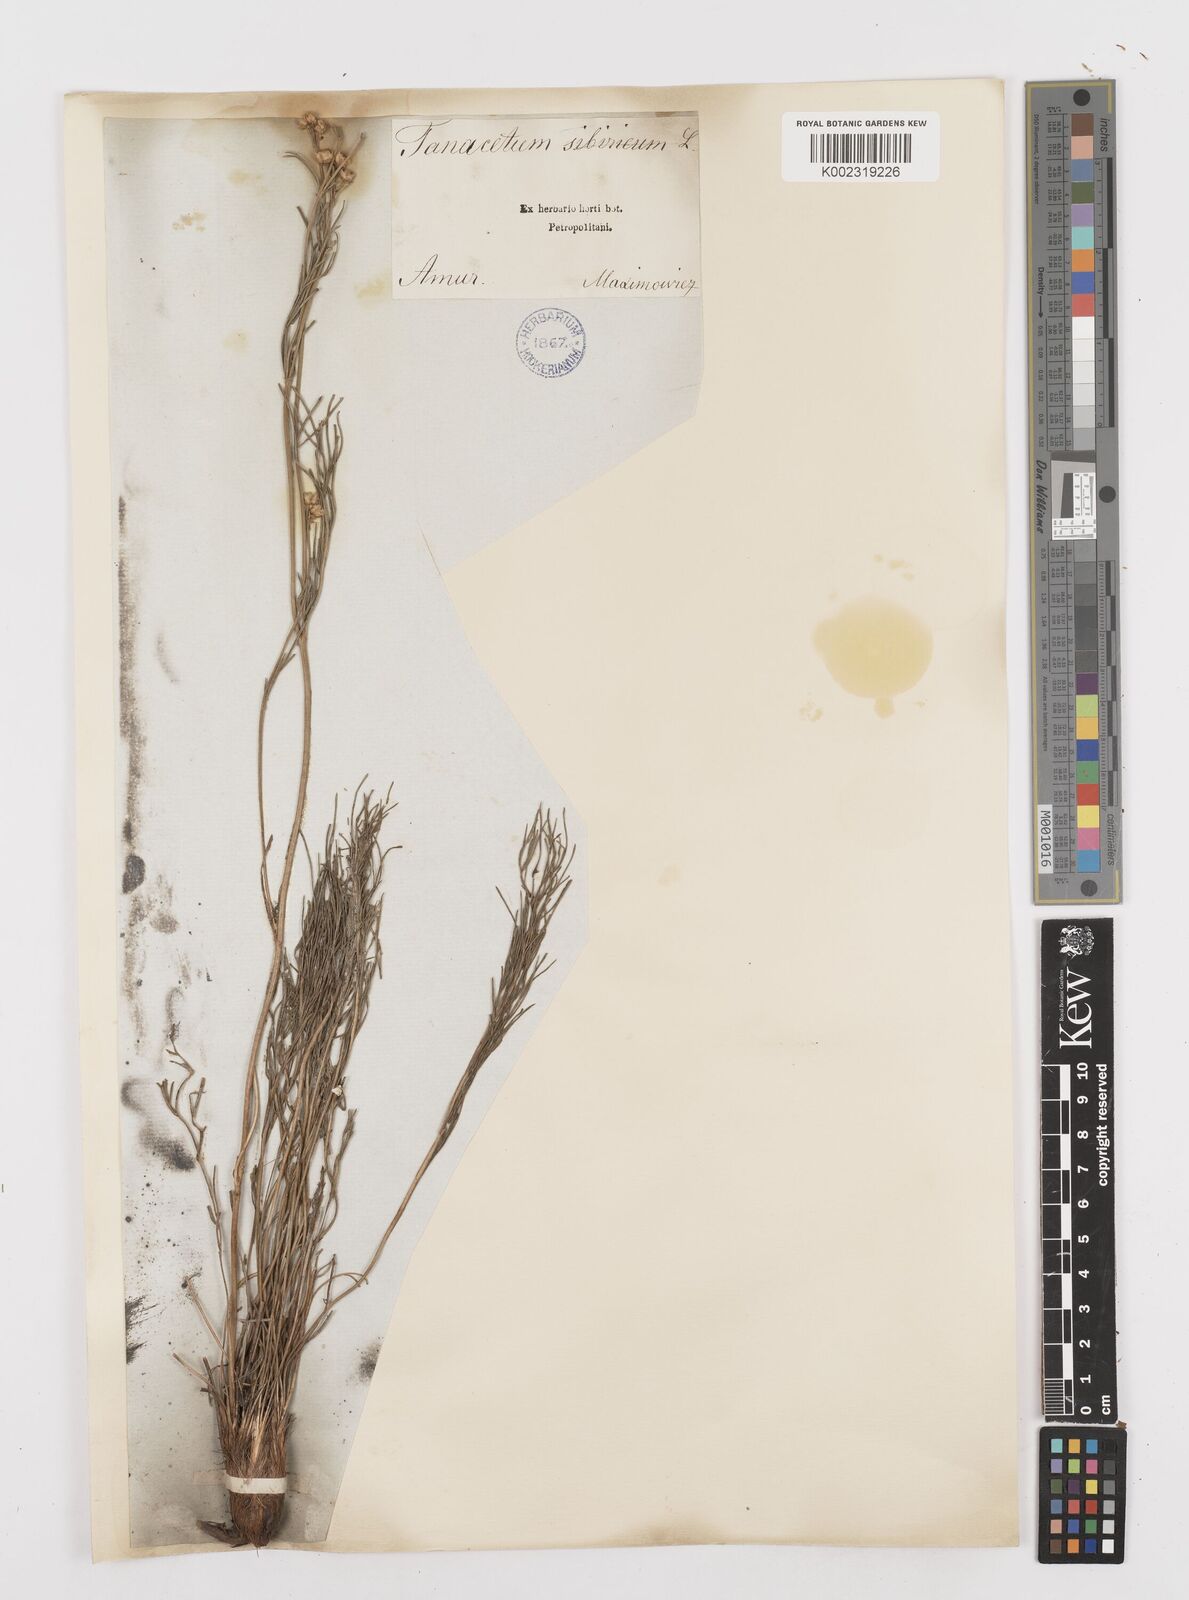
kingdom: Plantae
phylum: Tracheophyta
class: Magnoliopsida
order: Asterales
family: Asteraceae
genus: Filifolium
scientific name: Filifolium sibiricum
